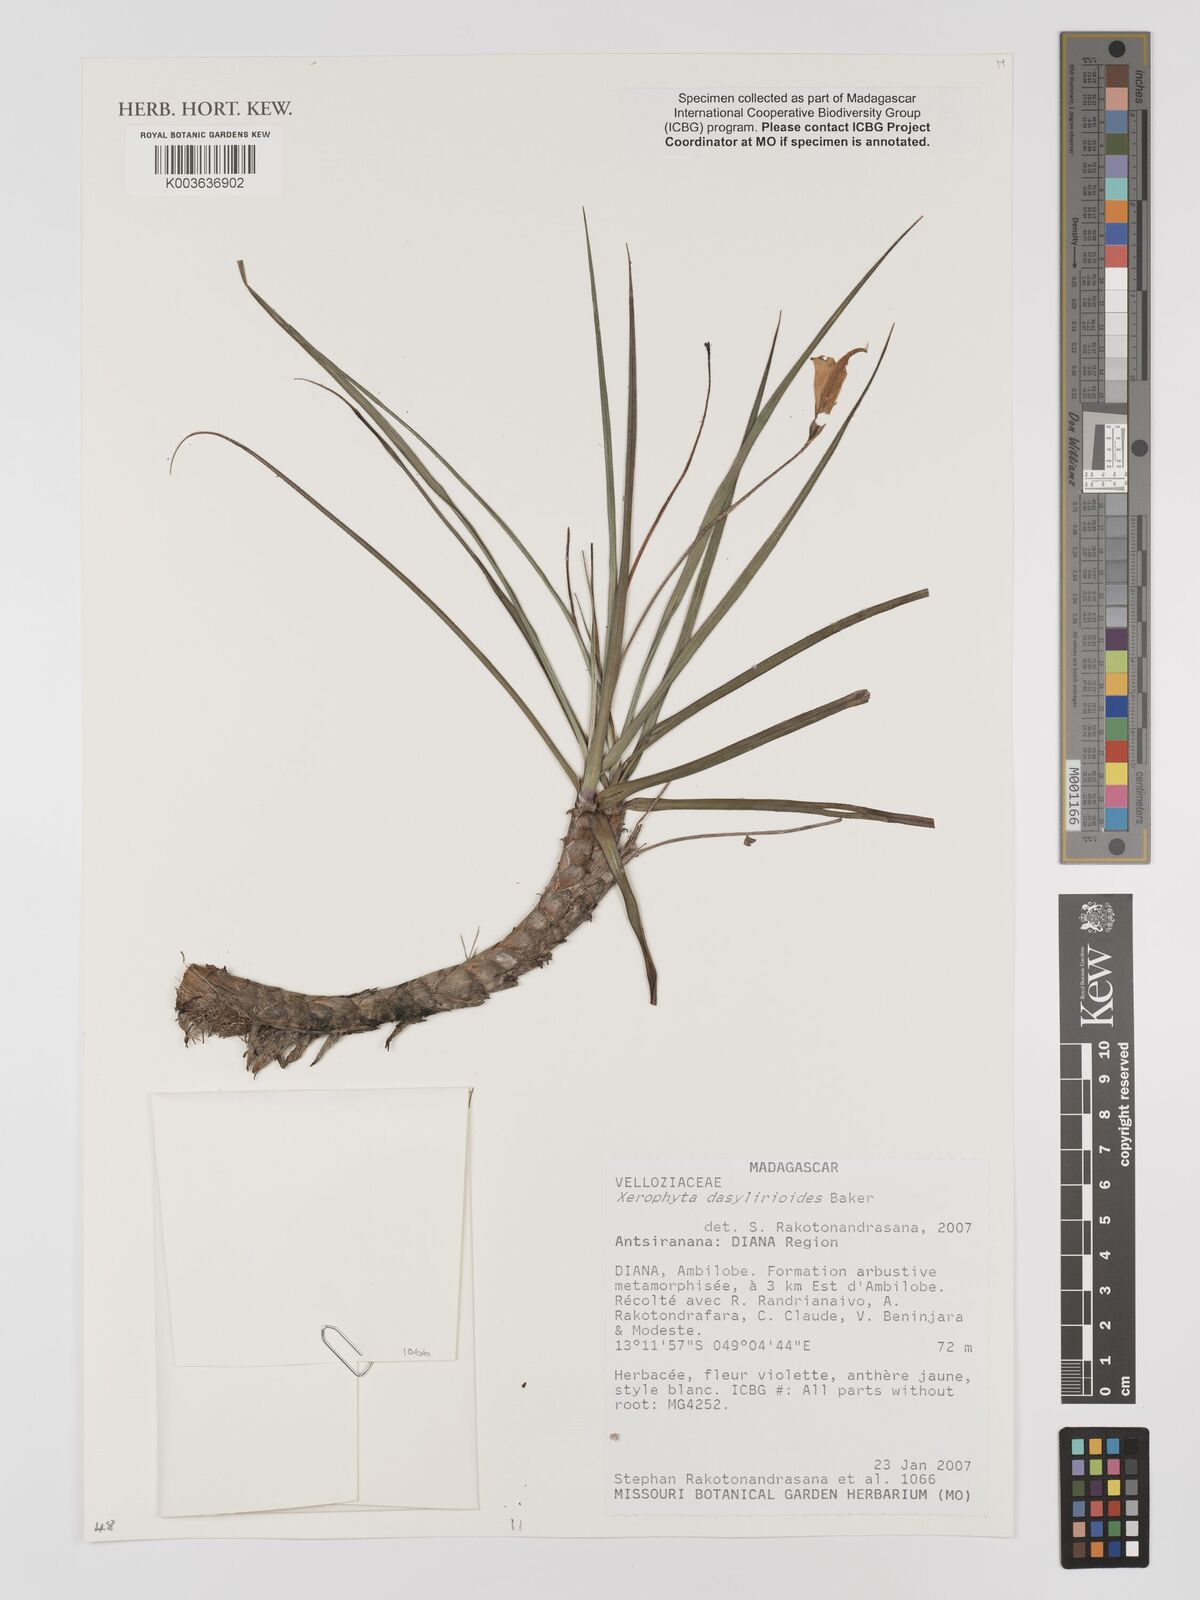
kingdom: Plantae
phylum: Tracheophyta
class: Liliopsida
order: Pandanales
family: Velloziaceae
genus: Xerophyta
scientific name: Xerophyta dasylirioides
